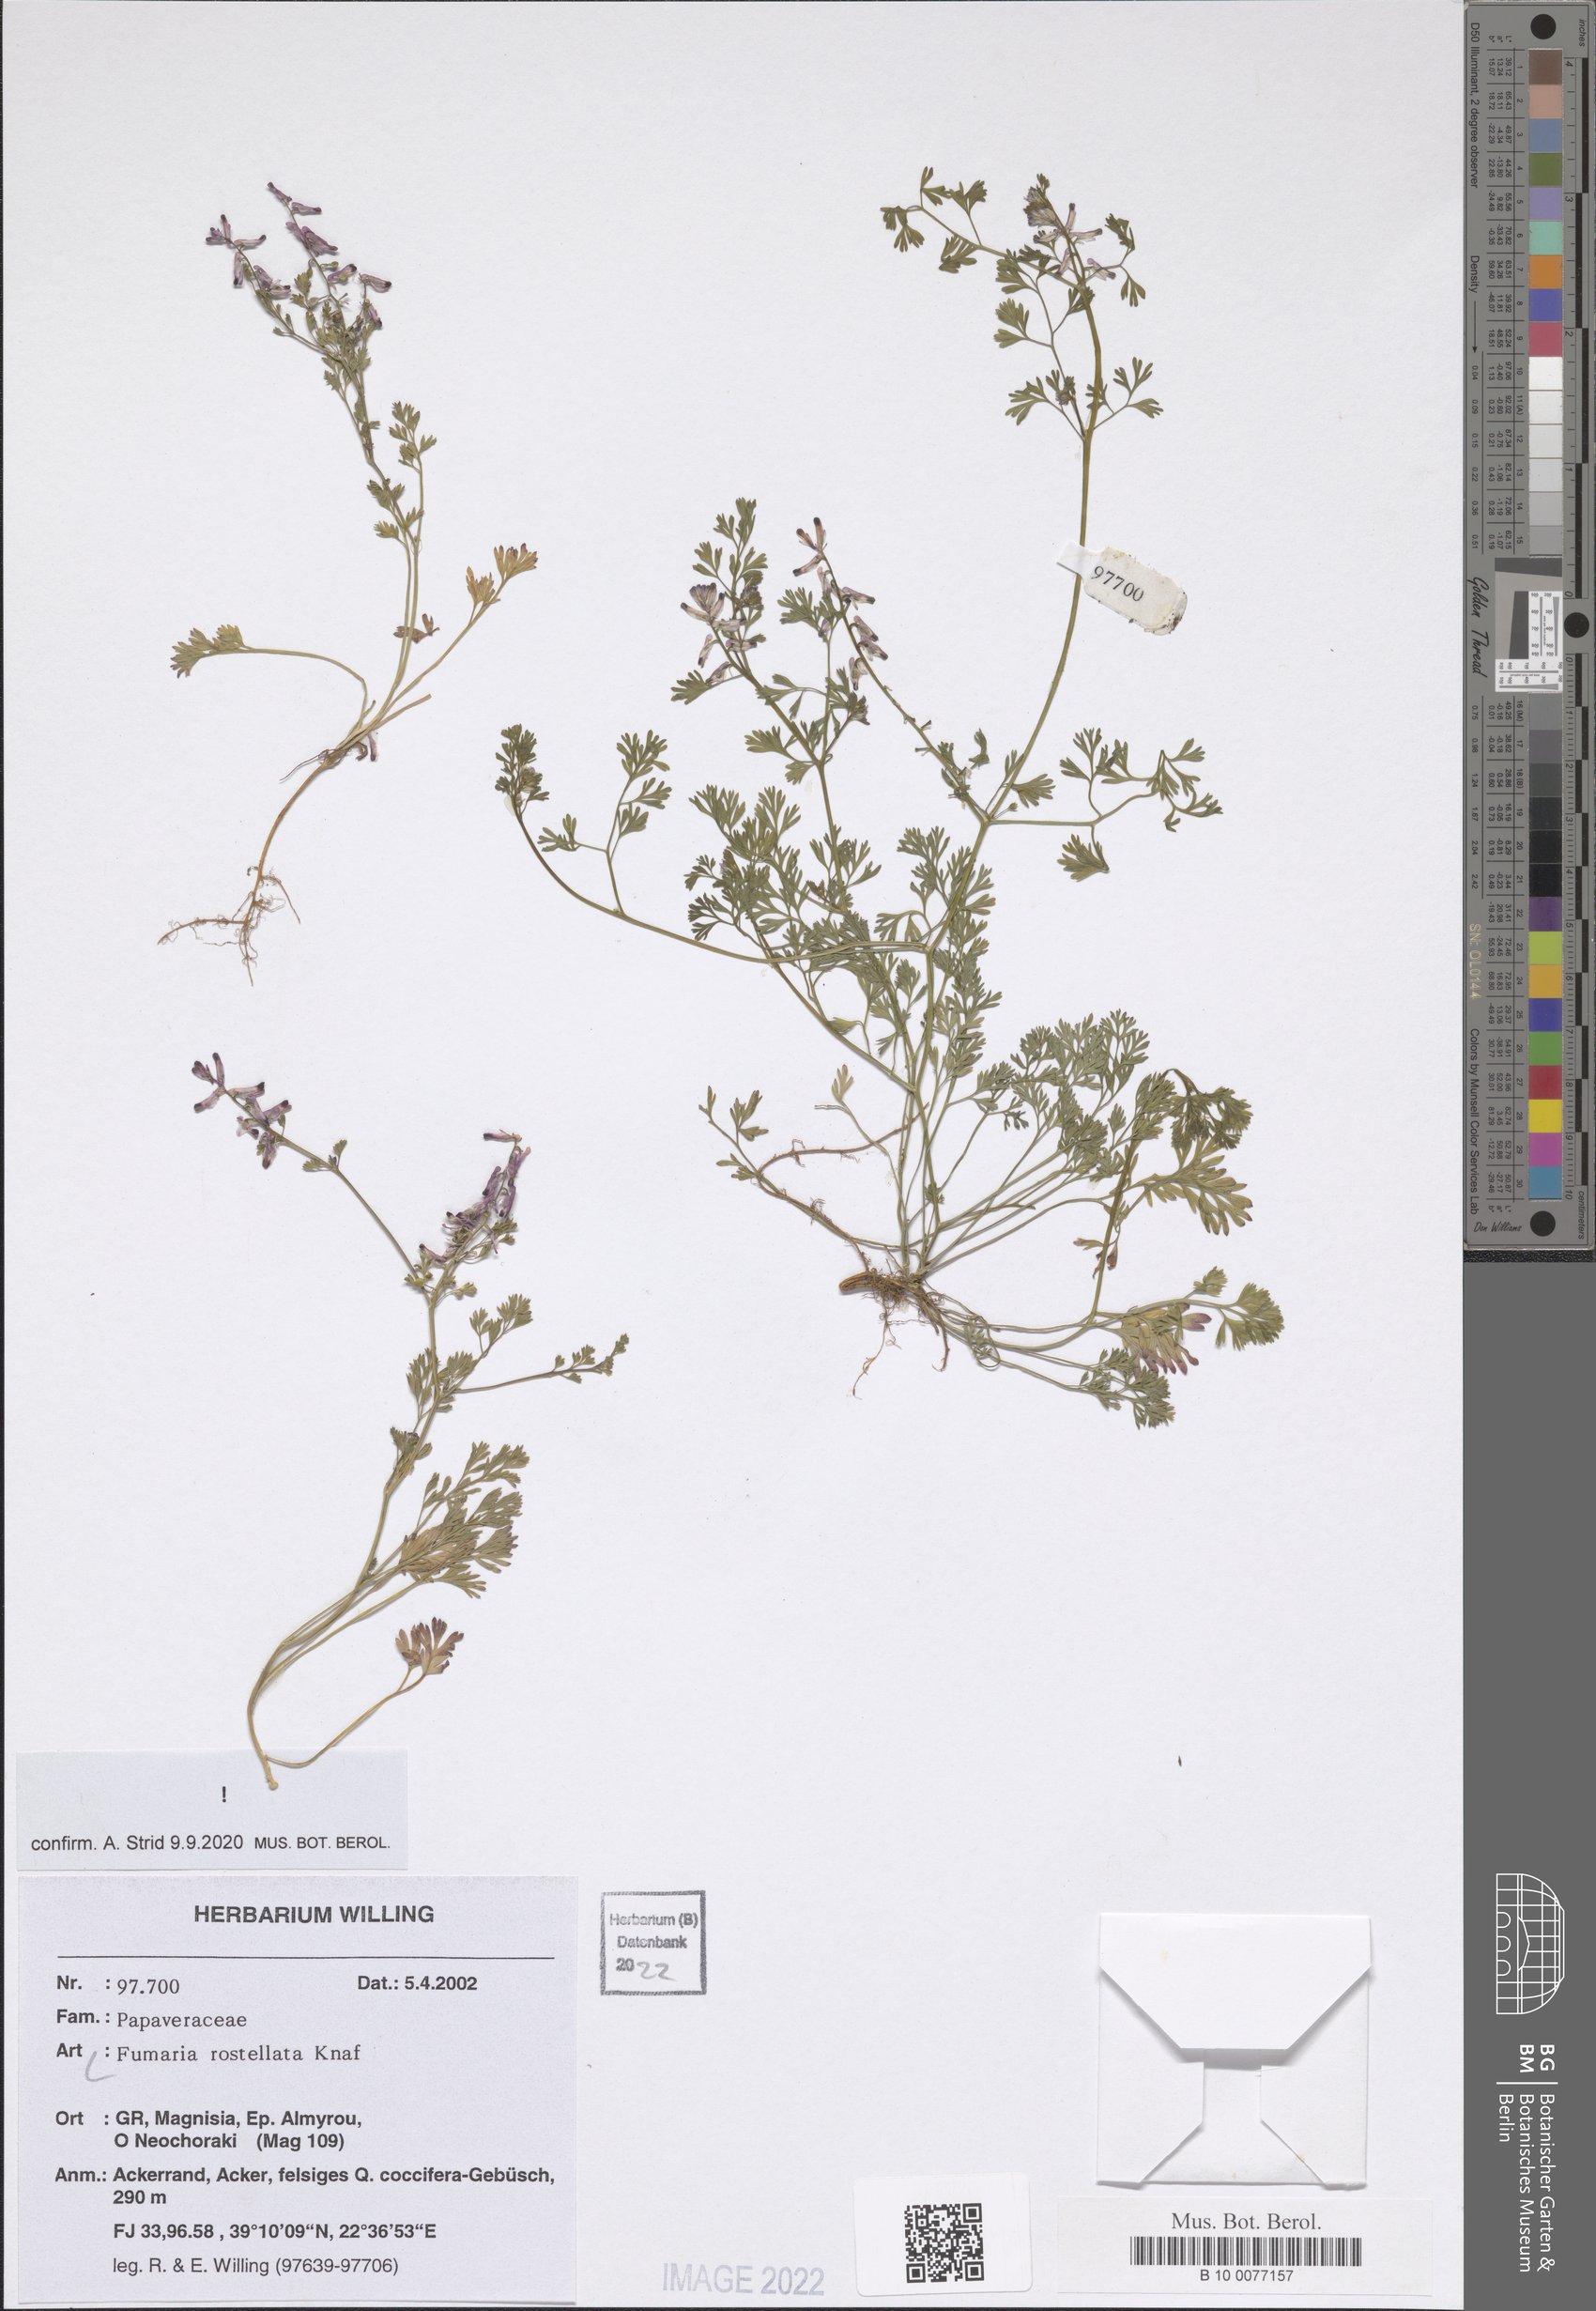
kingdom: Plantae
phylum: Tracheophyta
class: Magnoliopsida
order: Ranunculales
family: Papaveraceae
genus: Fumaria
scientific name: Fumaria rostellata
